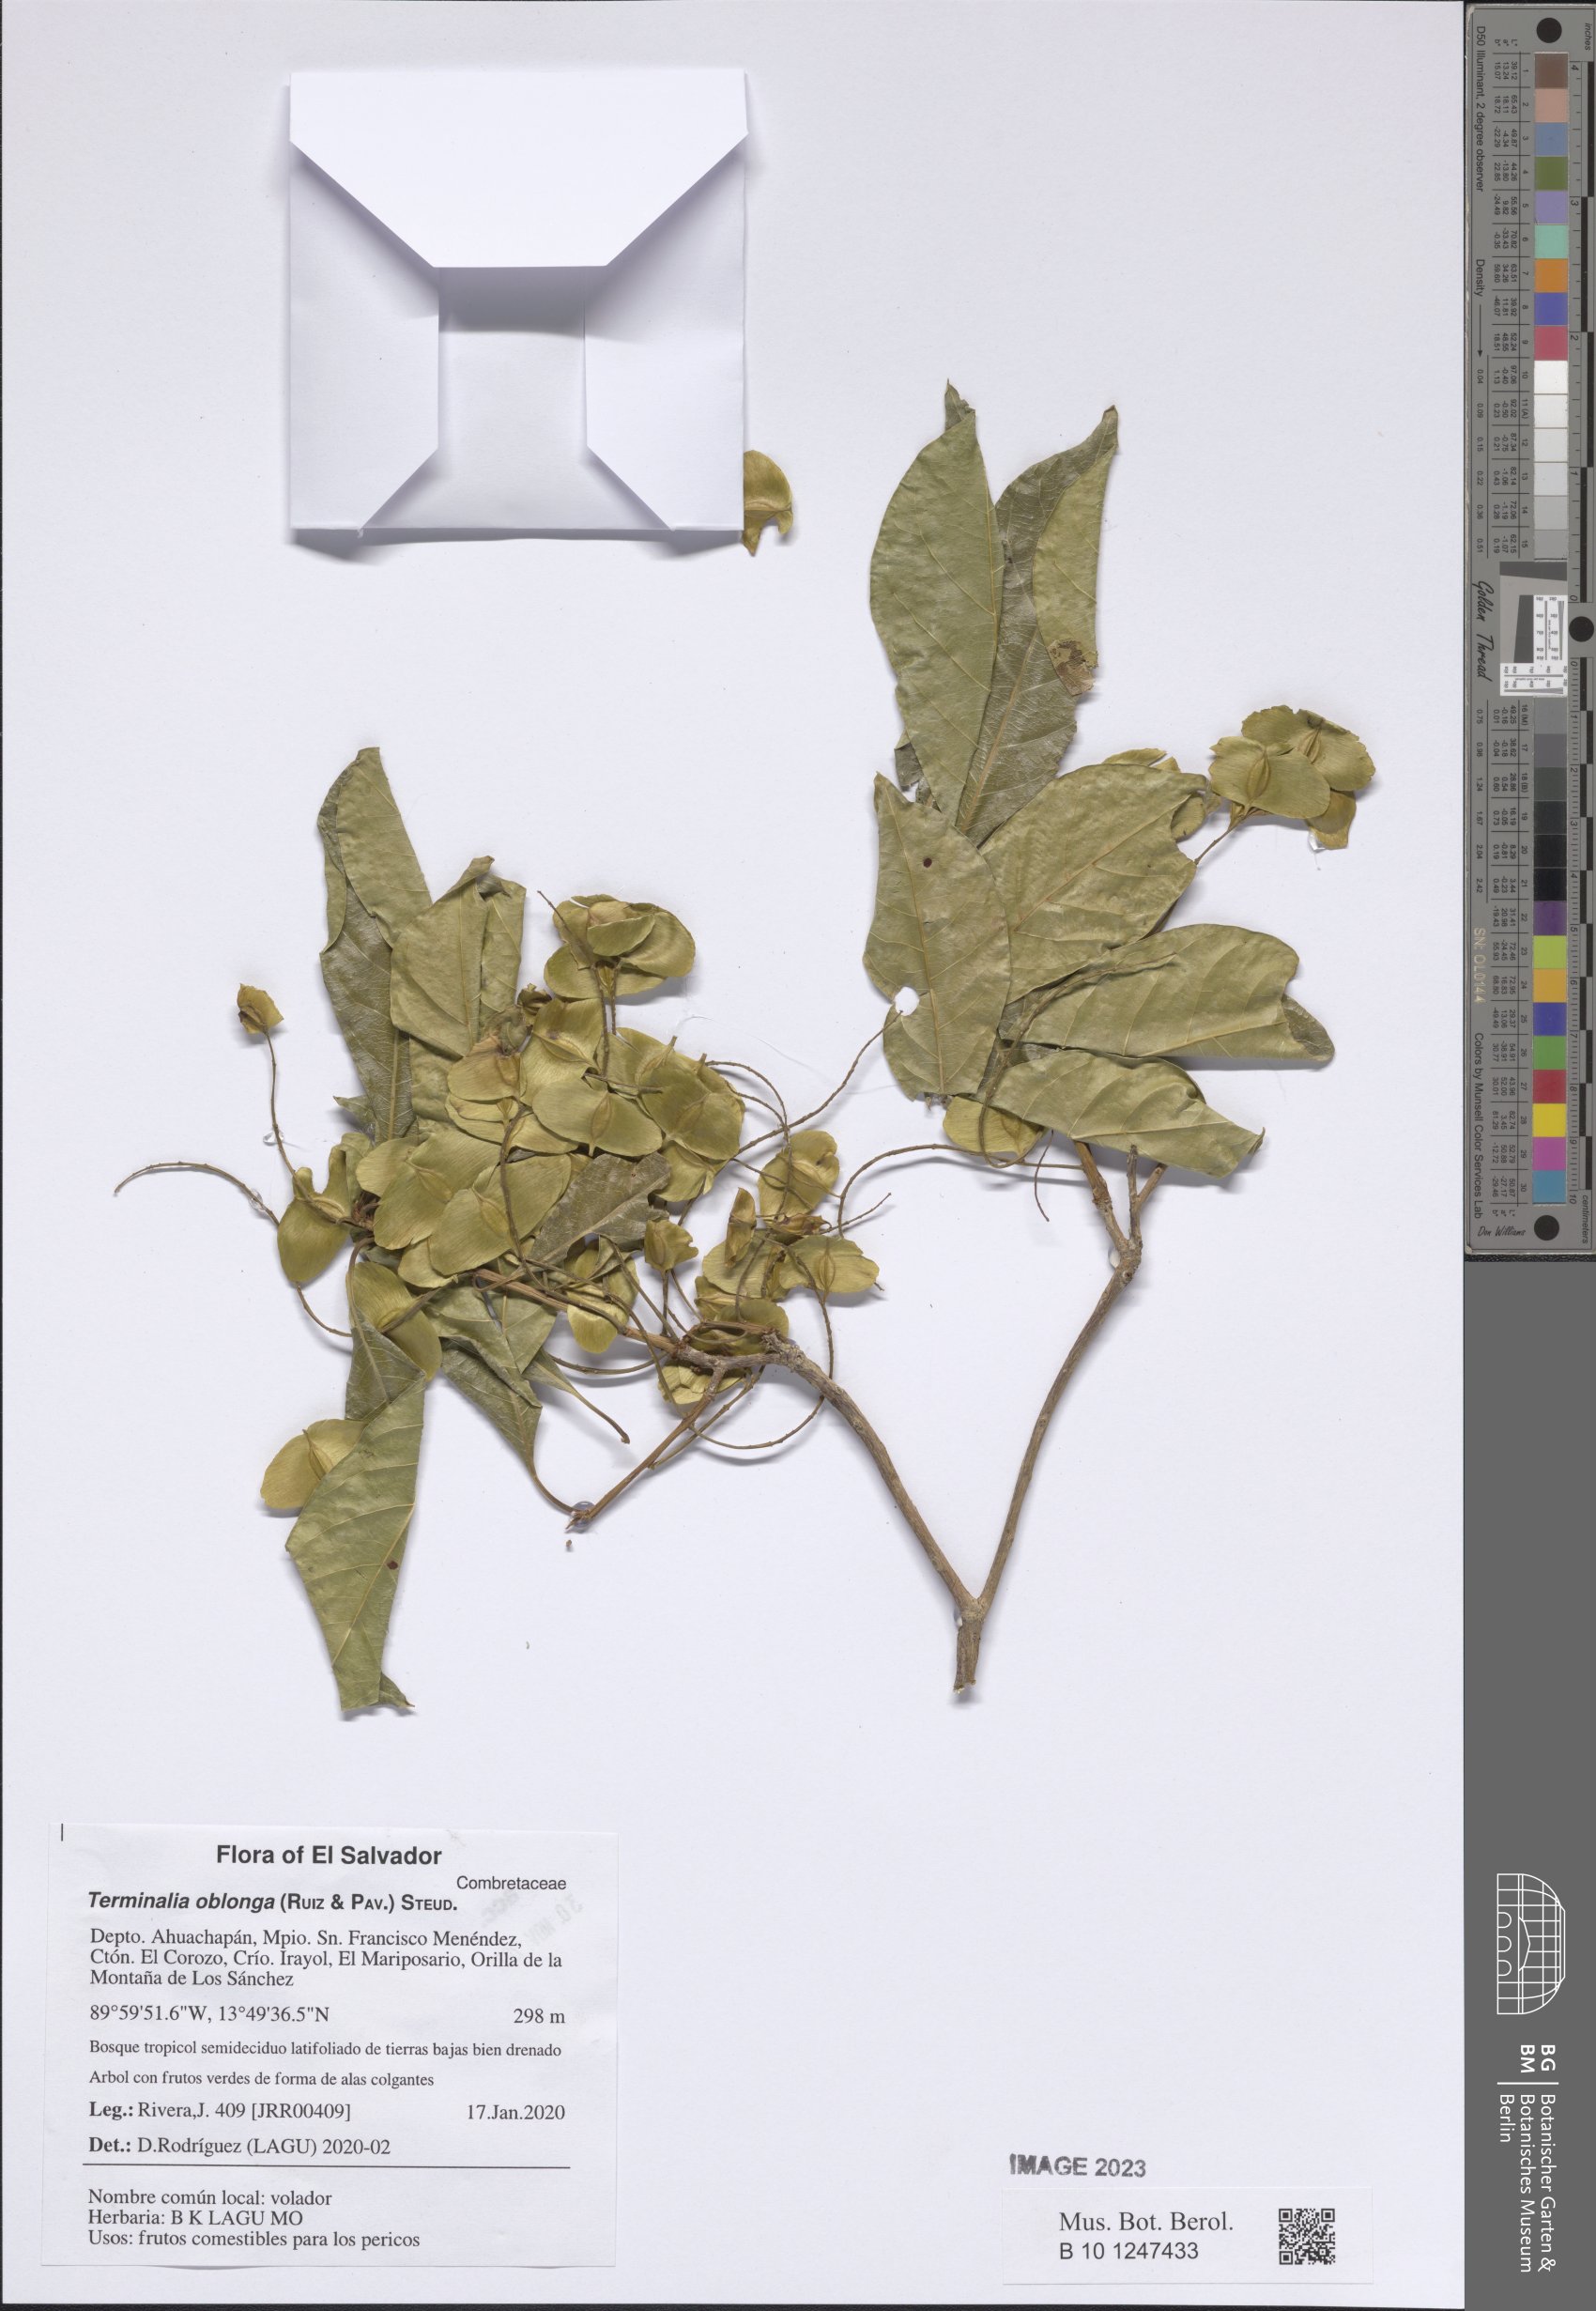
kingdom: Plantae
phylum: Tracheophyta
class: Magnoliopsida
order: Myrtales
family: Combretaceae
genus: Terminalia
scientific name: Terminalia oblonga
